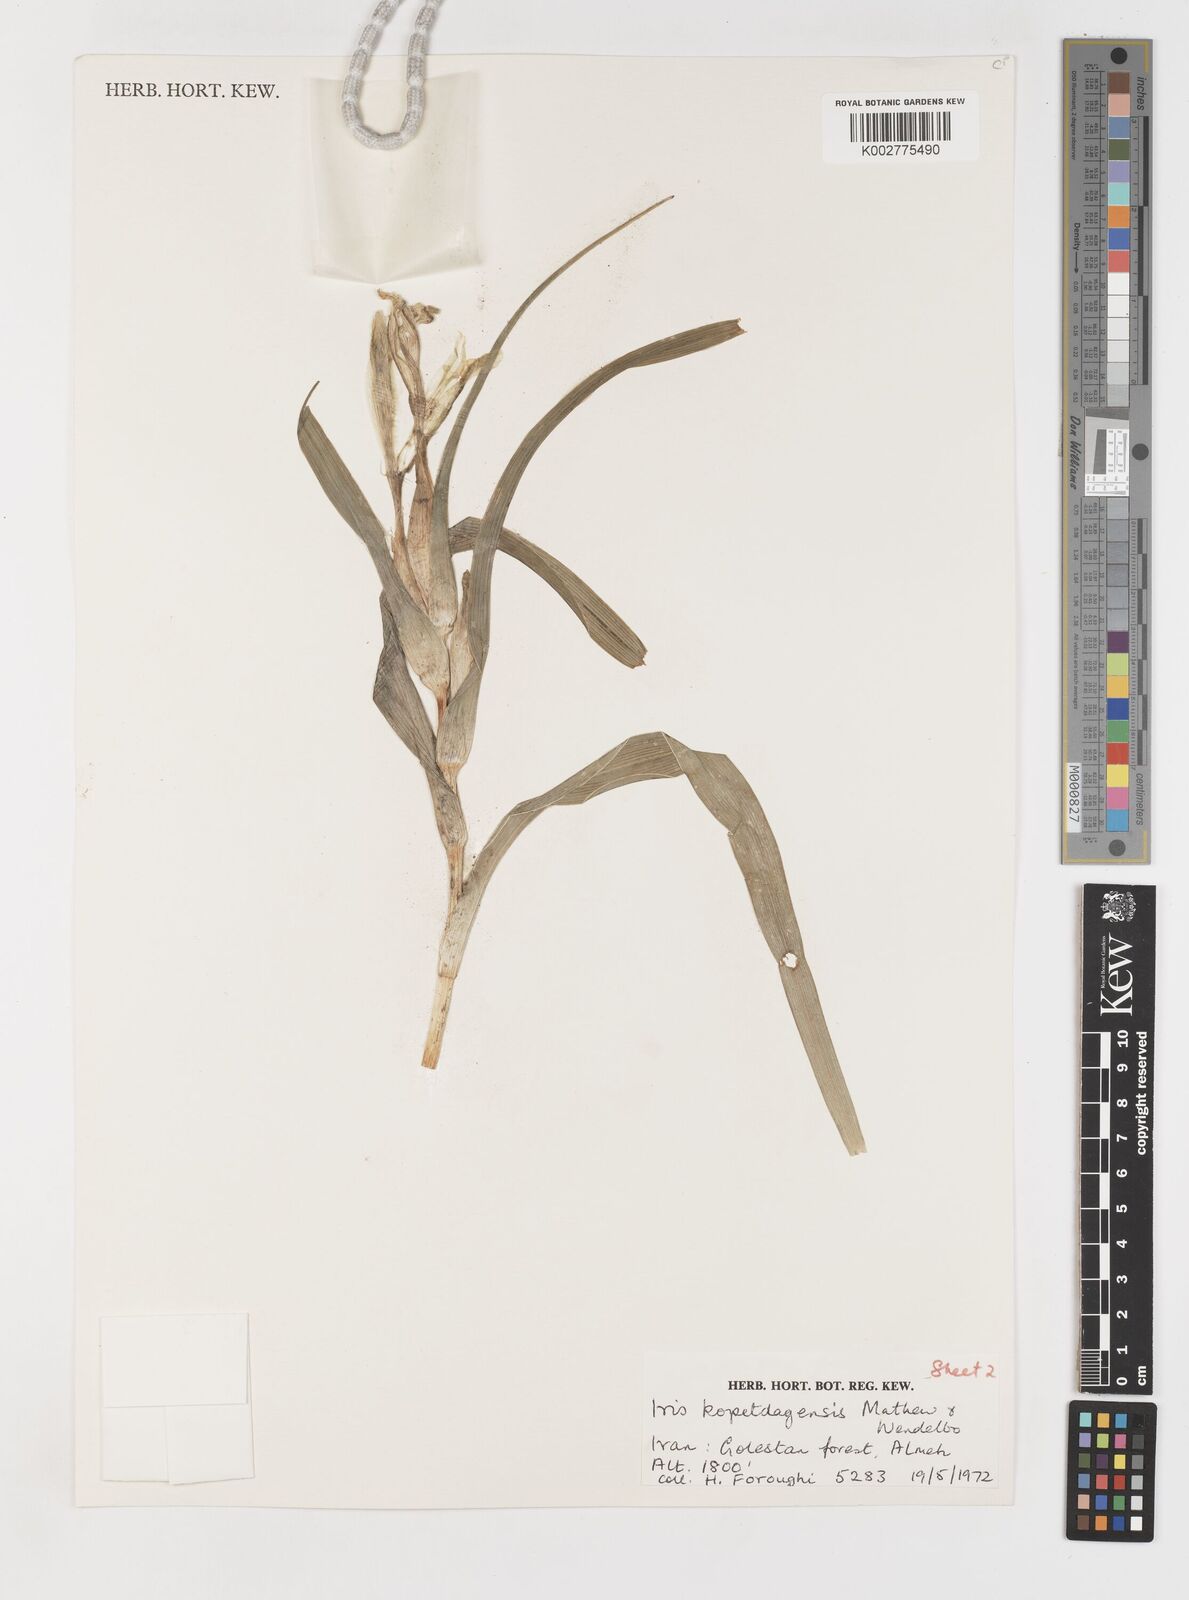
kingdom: Plantae
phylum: Tracheophyta
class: Liliopsida
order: Asparagales
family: Iridaceae
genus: Iris
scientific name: Iris kopetdagensis
